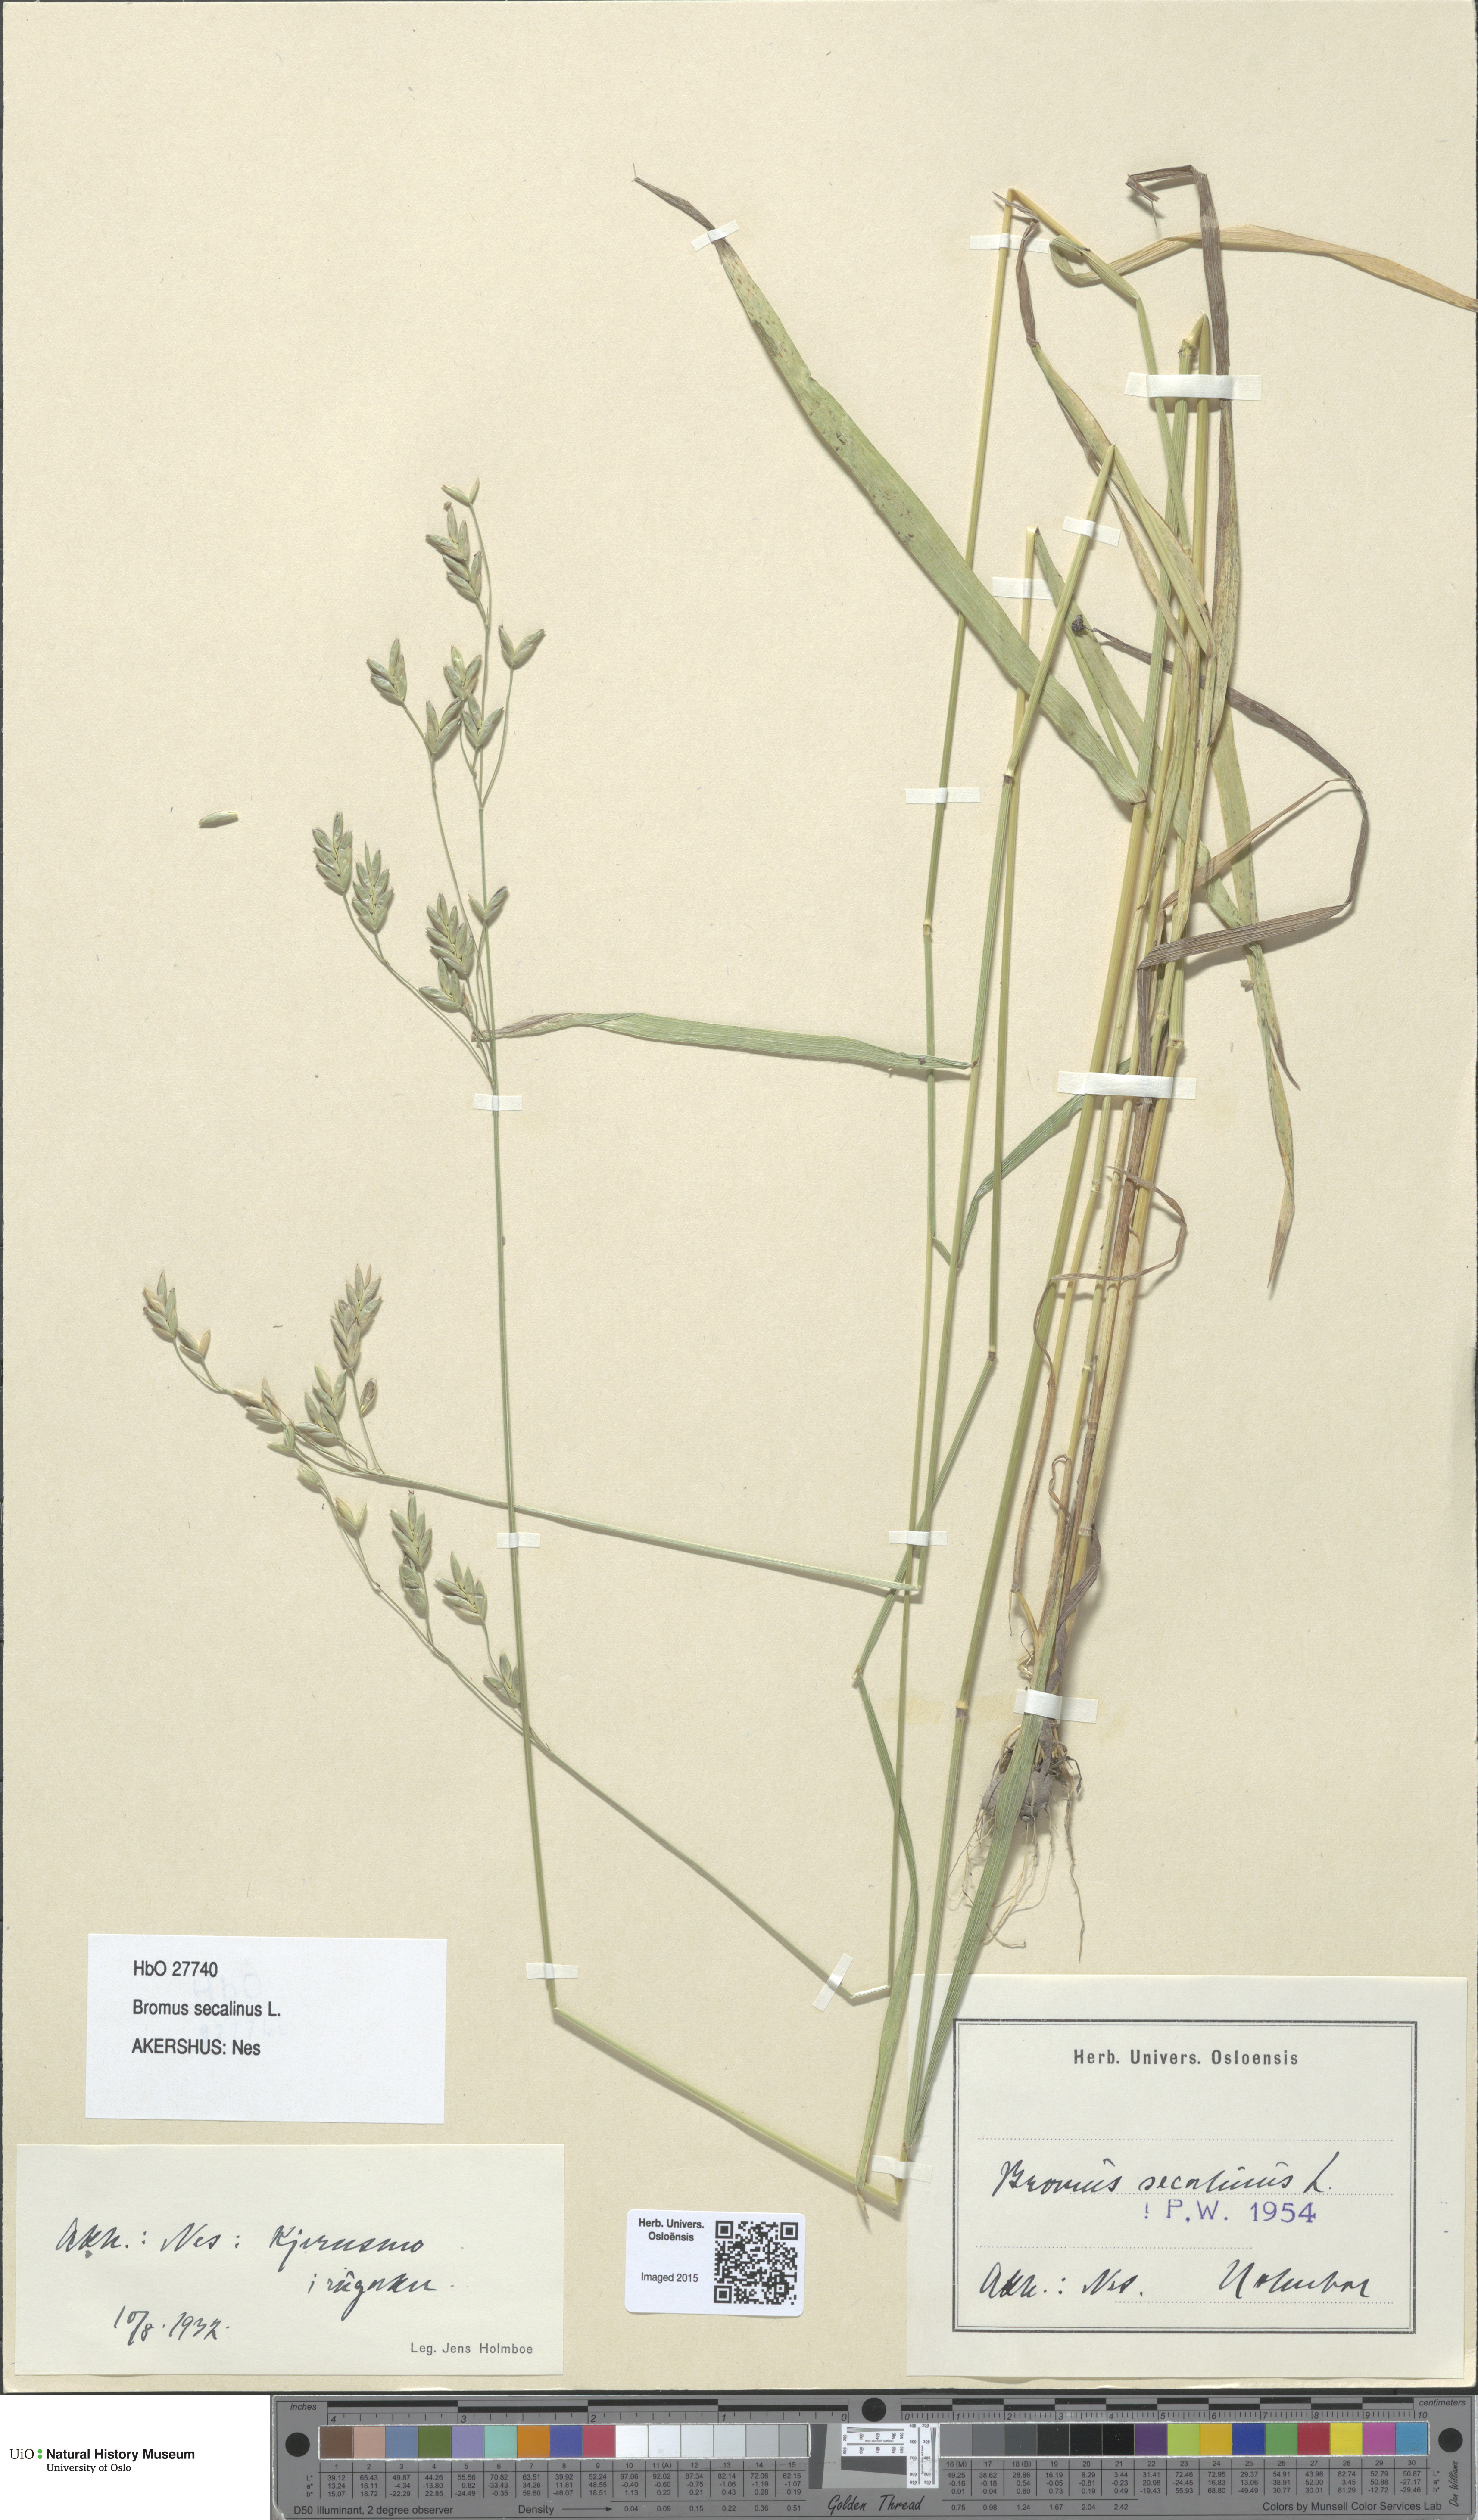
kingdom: Plantae
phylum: Tracheophyta
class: Liliopsida
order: Poales
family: Poaceae
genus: Bromus
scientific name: Bromus secalinus
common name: Rye brome
